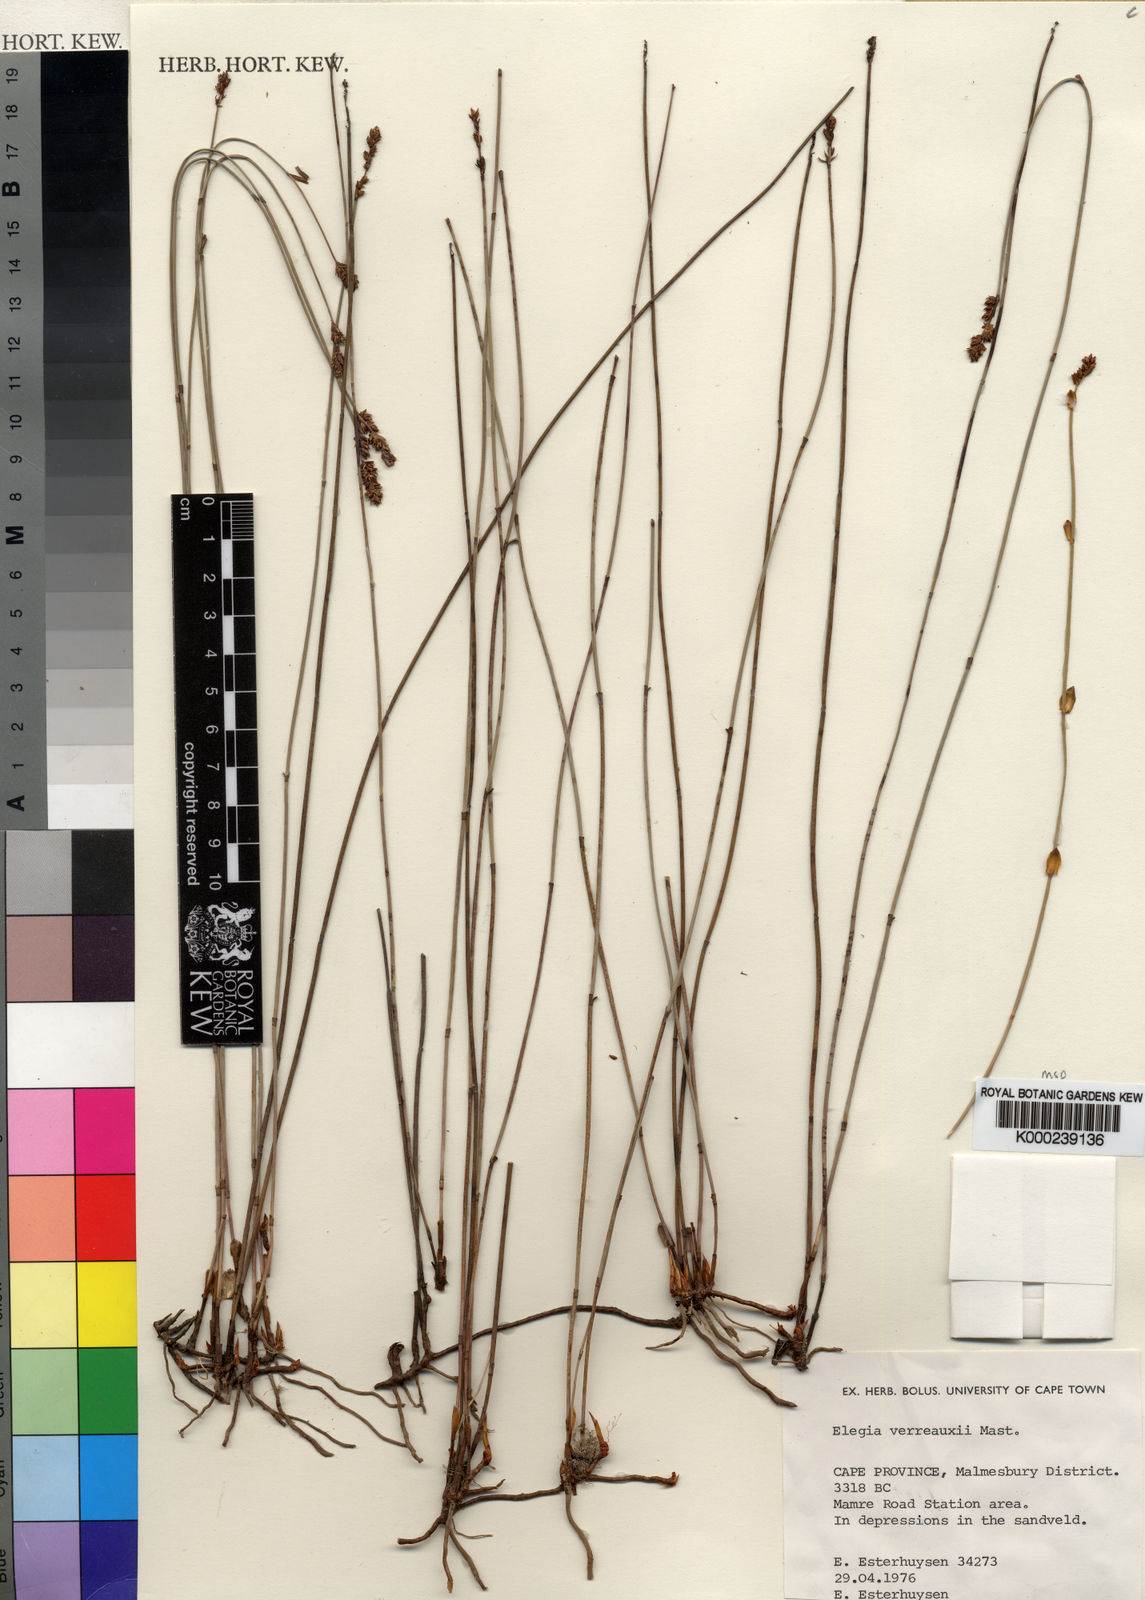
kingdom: Plantae
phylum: Tracheophyta
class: Liliopsida
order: Poales
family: Restionaceae
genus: Elegia
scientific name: Elegia verreauxii
